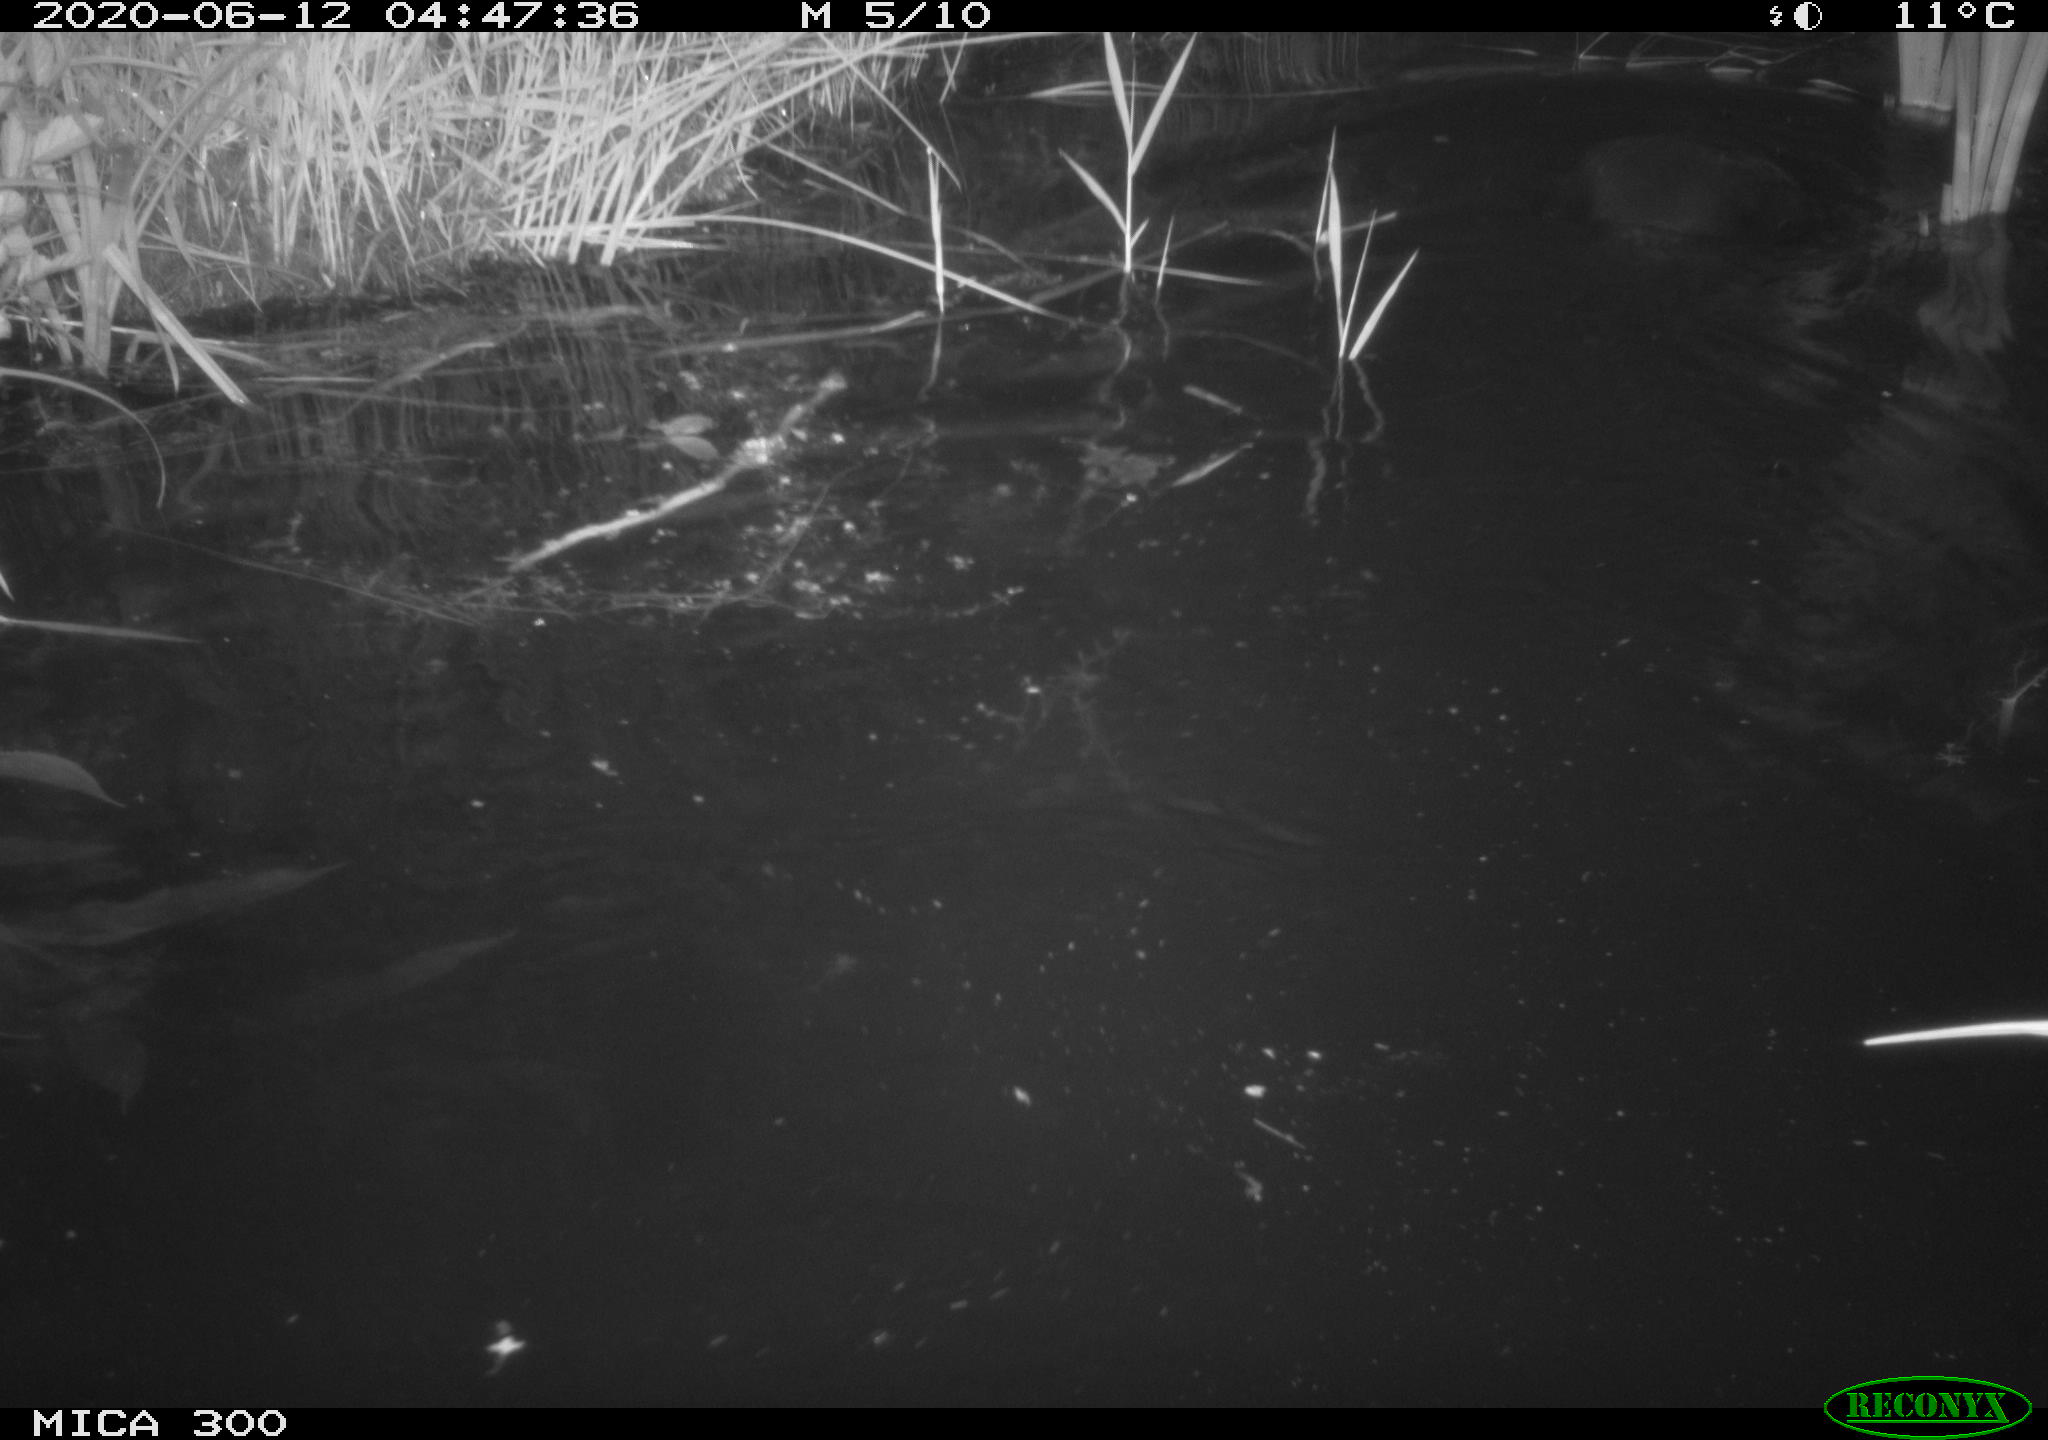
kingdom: Animalia
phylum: Chordata
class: Mammalia
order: Rodentia
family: Castoridae
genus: Castor
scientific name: Castor fiber
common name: Eurasian beaver
